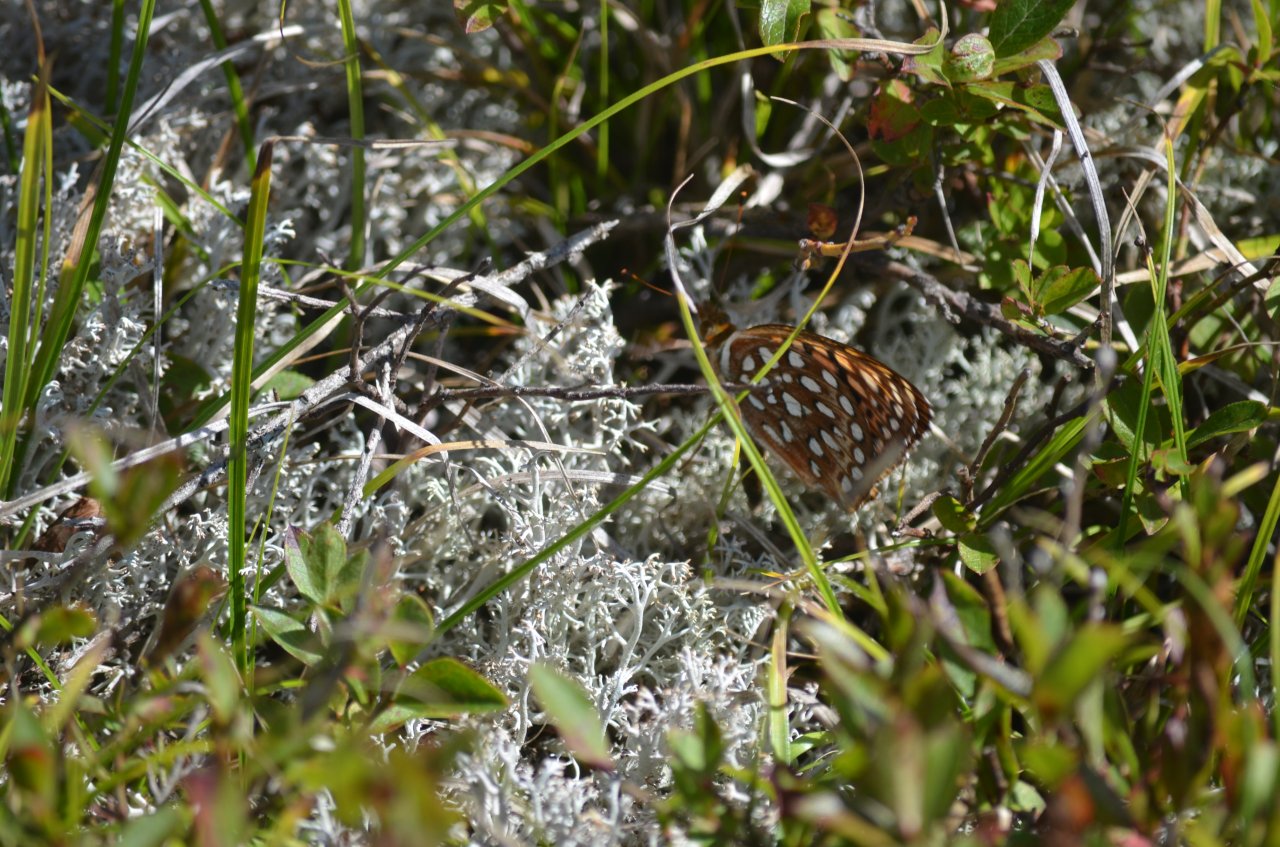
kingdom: Animalia
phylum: Arthropoda
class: Insecta
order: Lepidoptera
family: Nymphalidae
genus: Speyeria
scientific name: Speyeria aphrodite
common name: Aphrodite Fritillary
